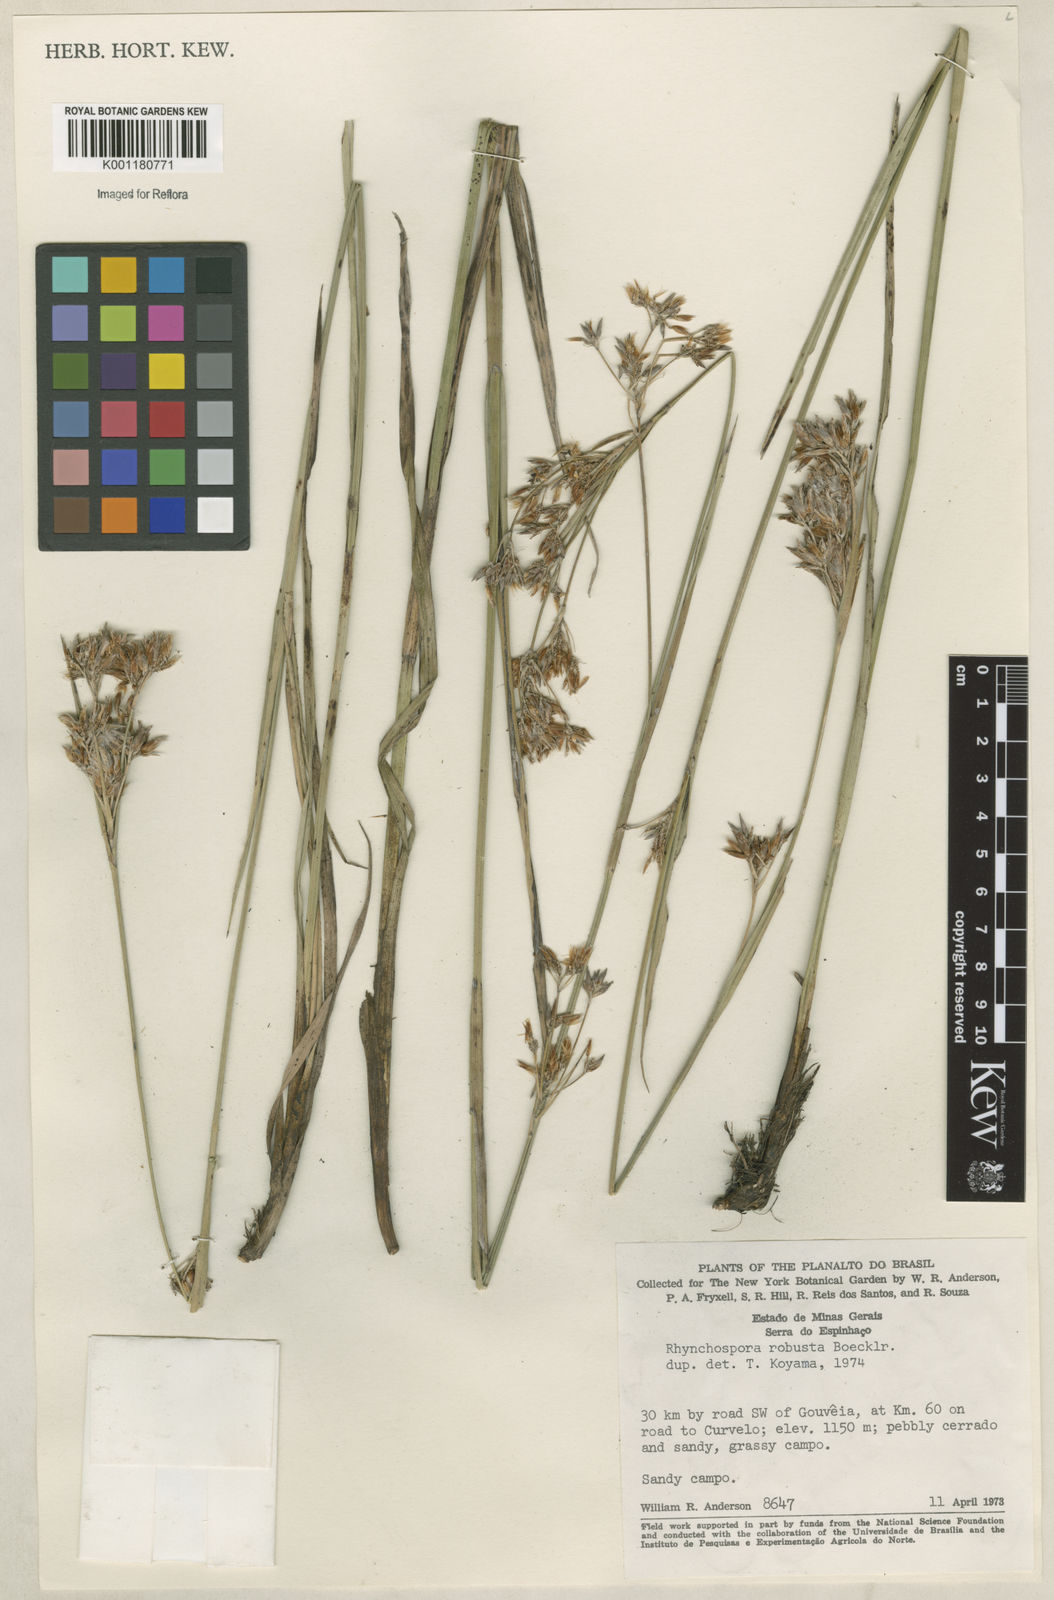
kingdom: Plantae
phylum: Tracheophyta
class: Liliopsida
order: Poales
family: Cyperaceae
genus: Rhynchospora
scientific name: Rhynchospora robusta
